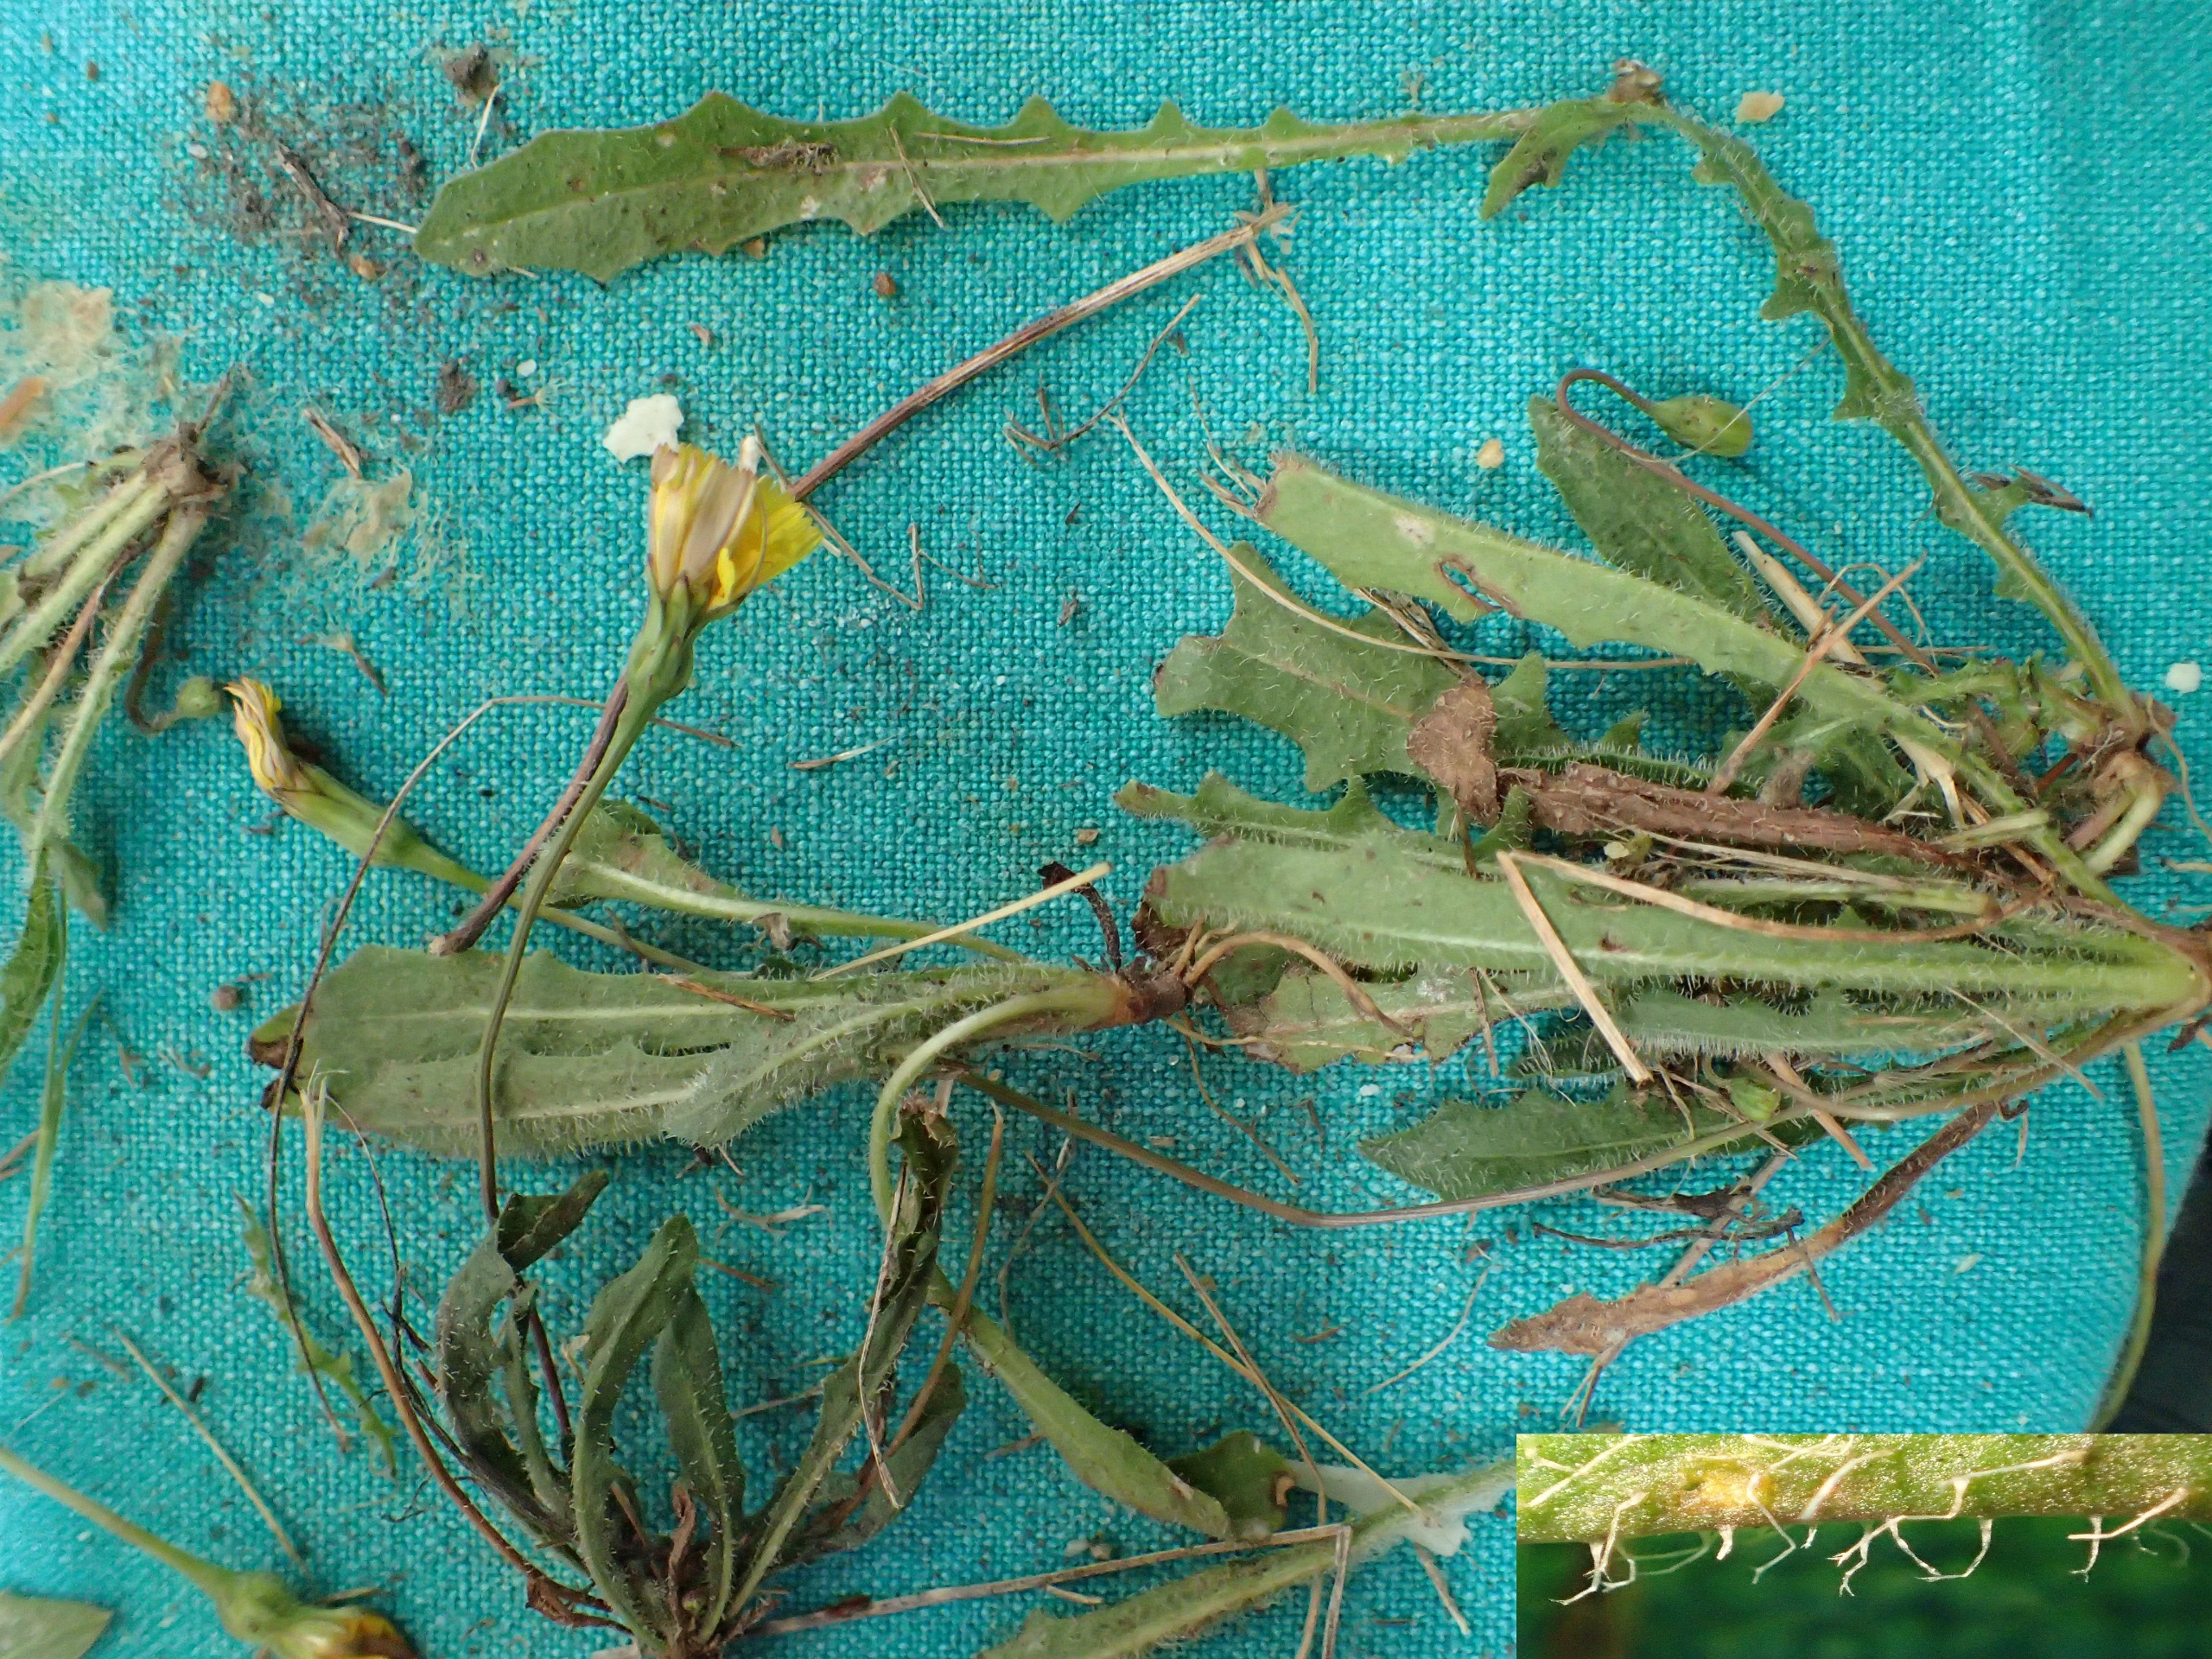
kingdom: Plantae
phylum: Tracheophyta
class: Magnoliopsida
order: Asterales
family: Asteraceae
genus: Thrincia
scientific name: Thrincia saxatilis
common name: Hundesalat
